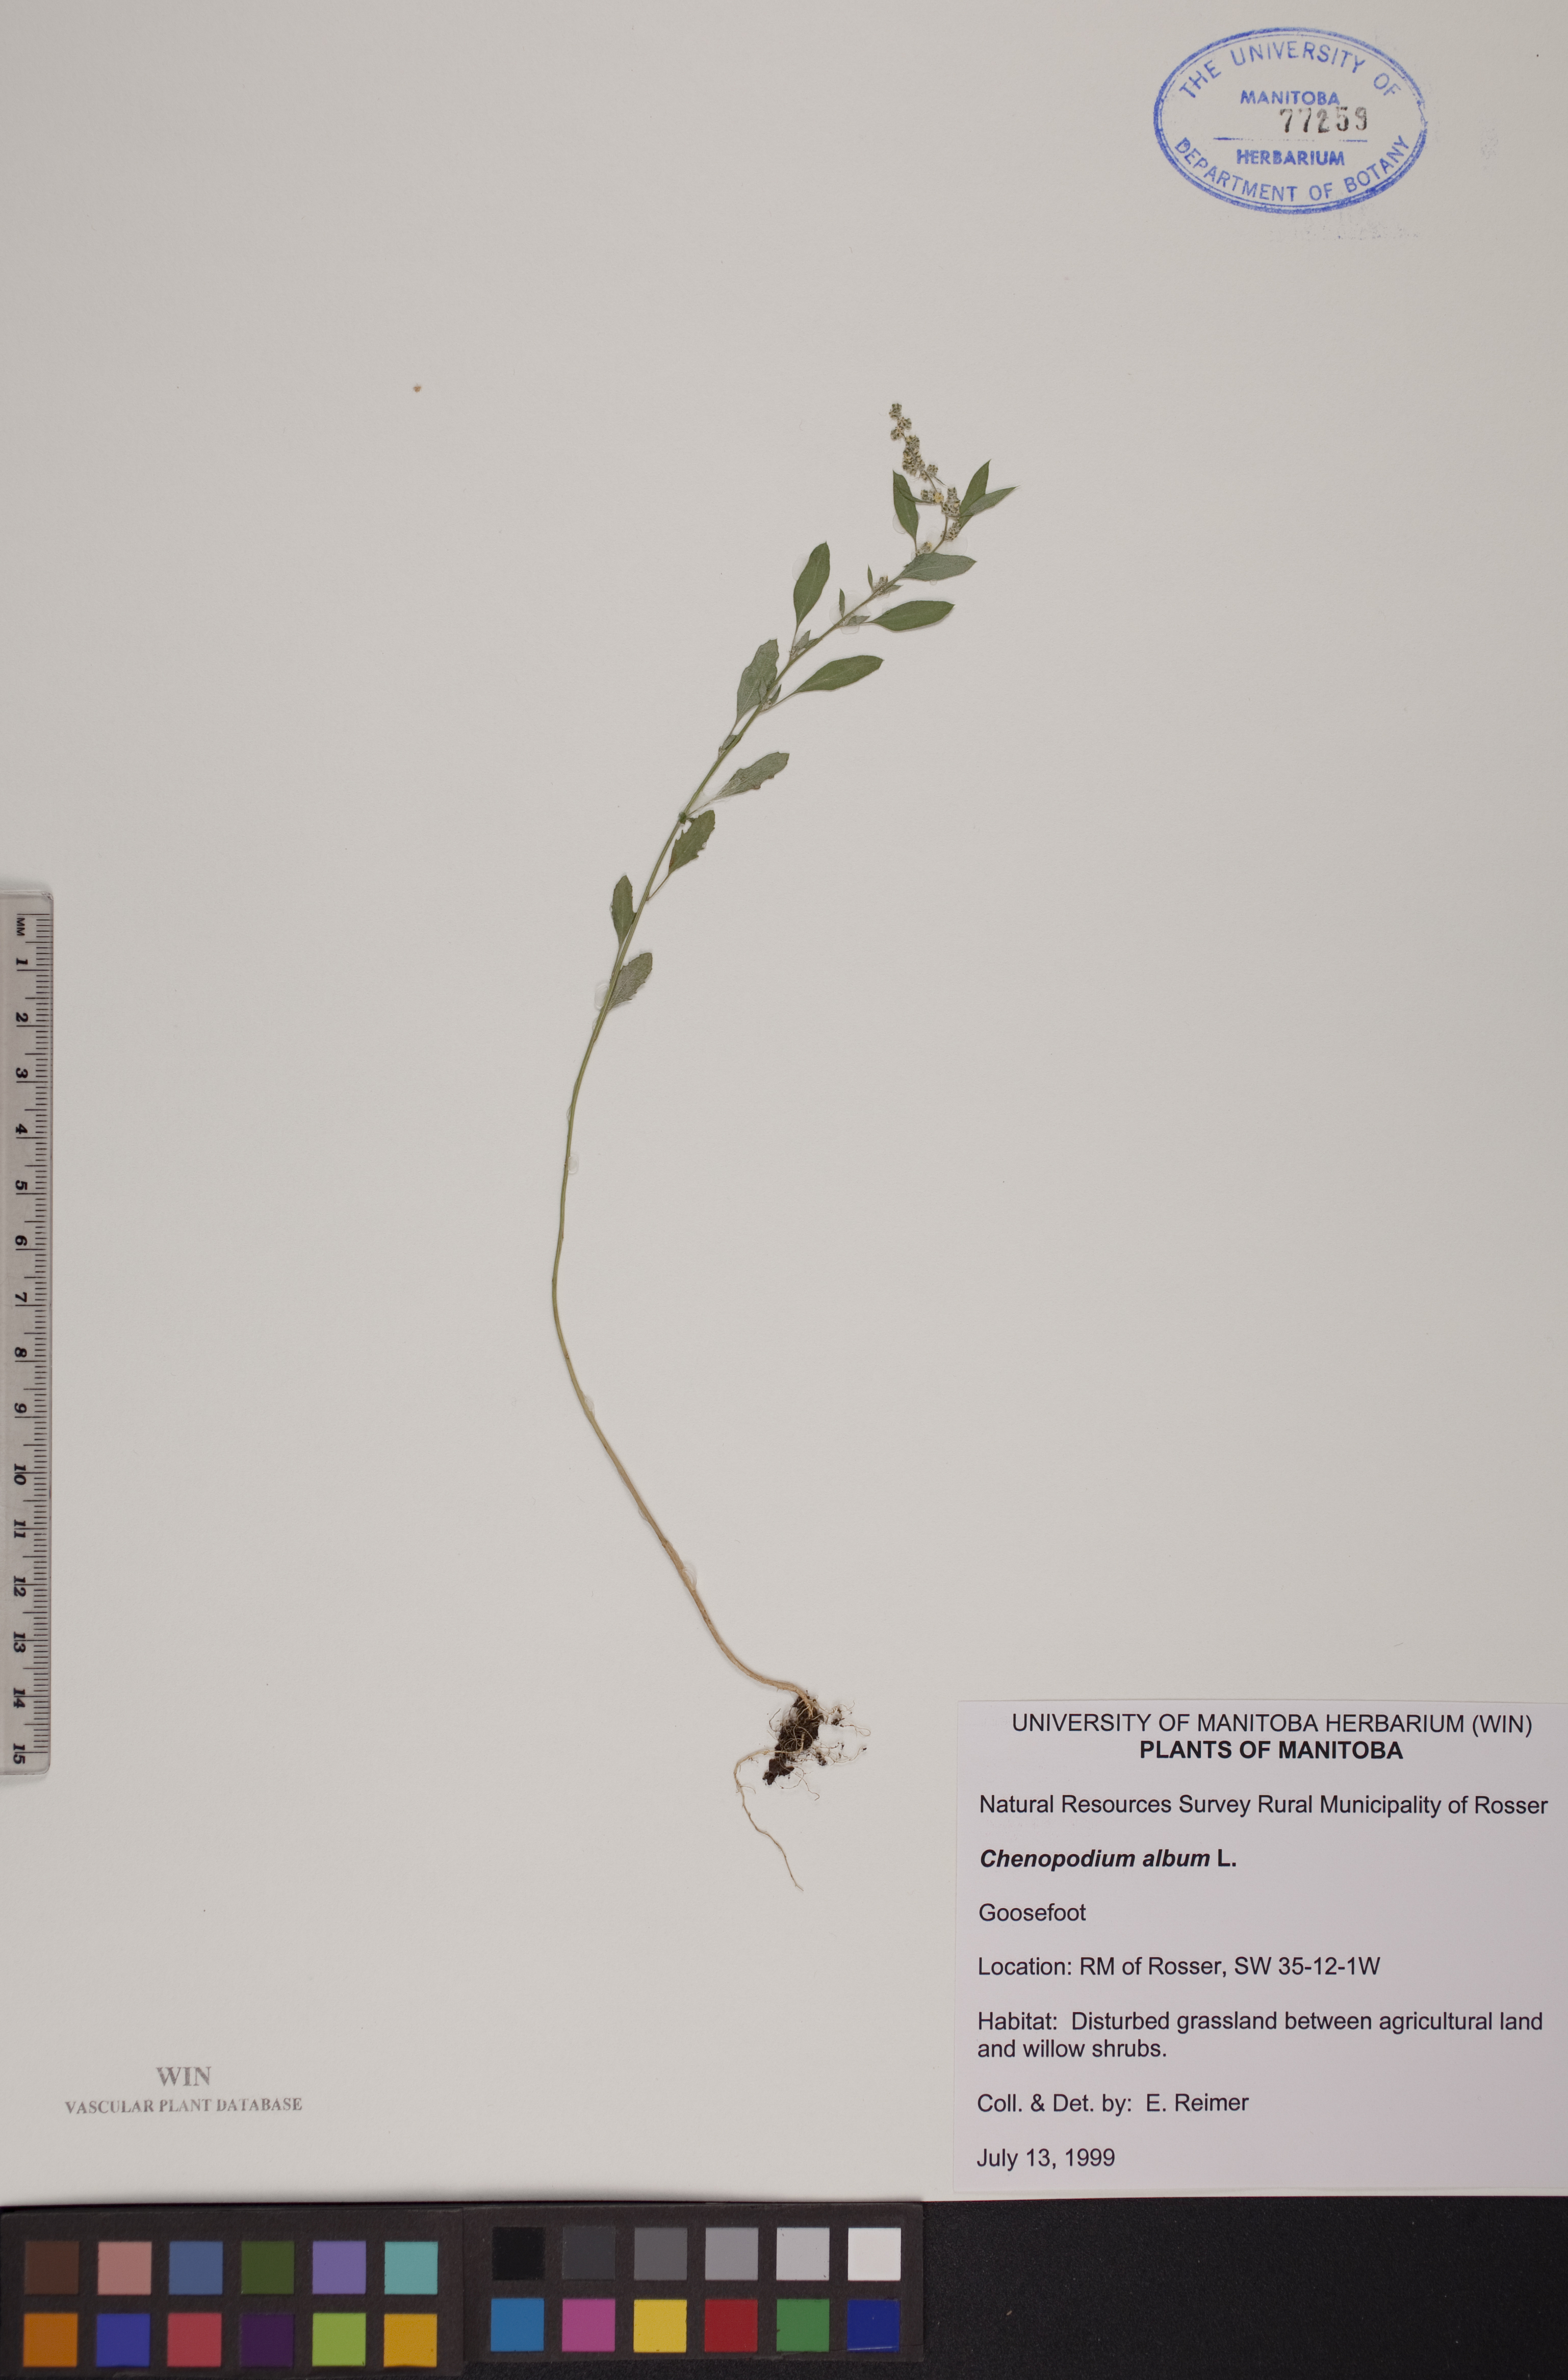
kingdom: Plantae
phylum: Tracheophyta
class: Magnoliopsida
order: Caryophyllales
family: Amaranthaceae
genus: Chenopodium
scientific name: Chenopodium album
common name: Fat-hen
